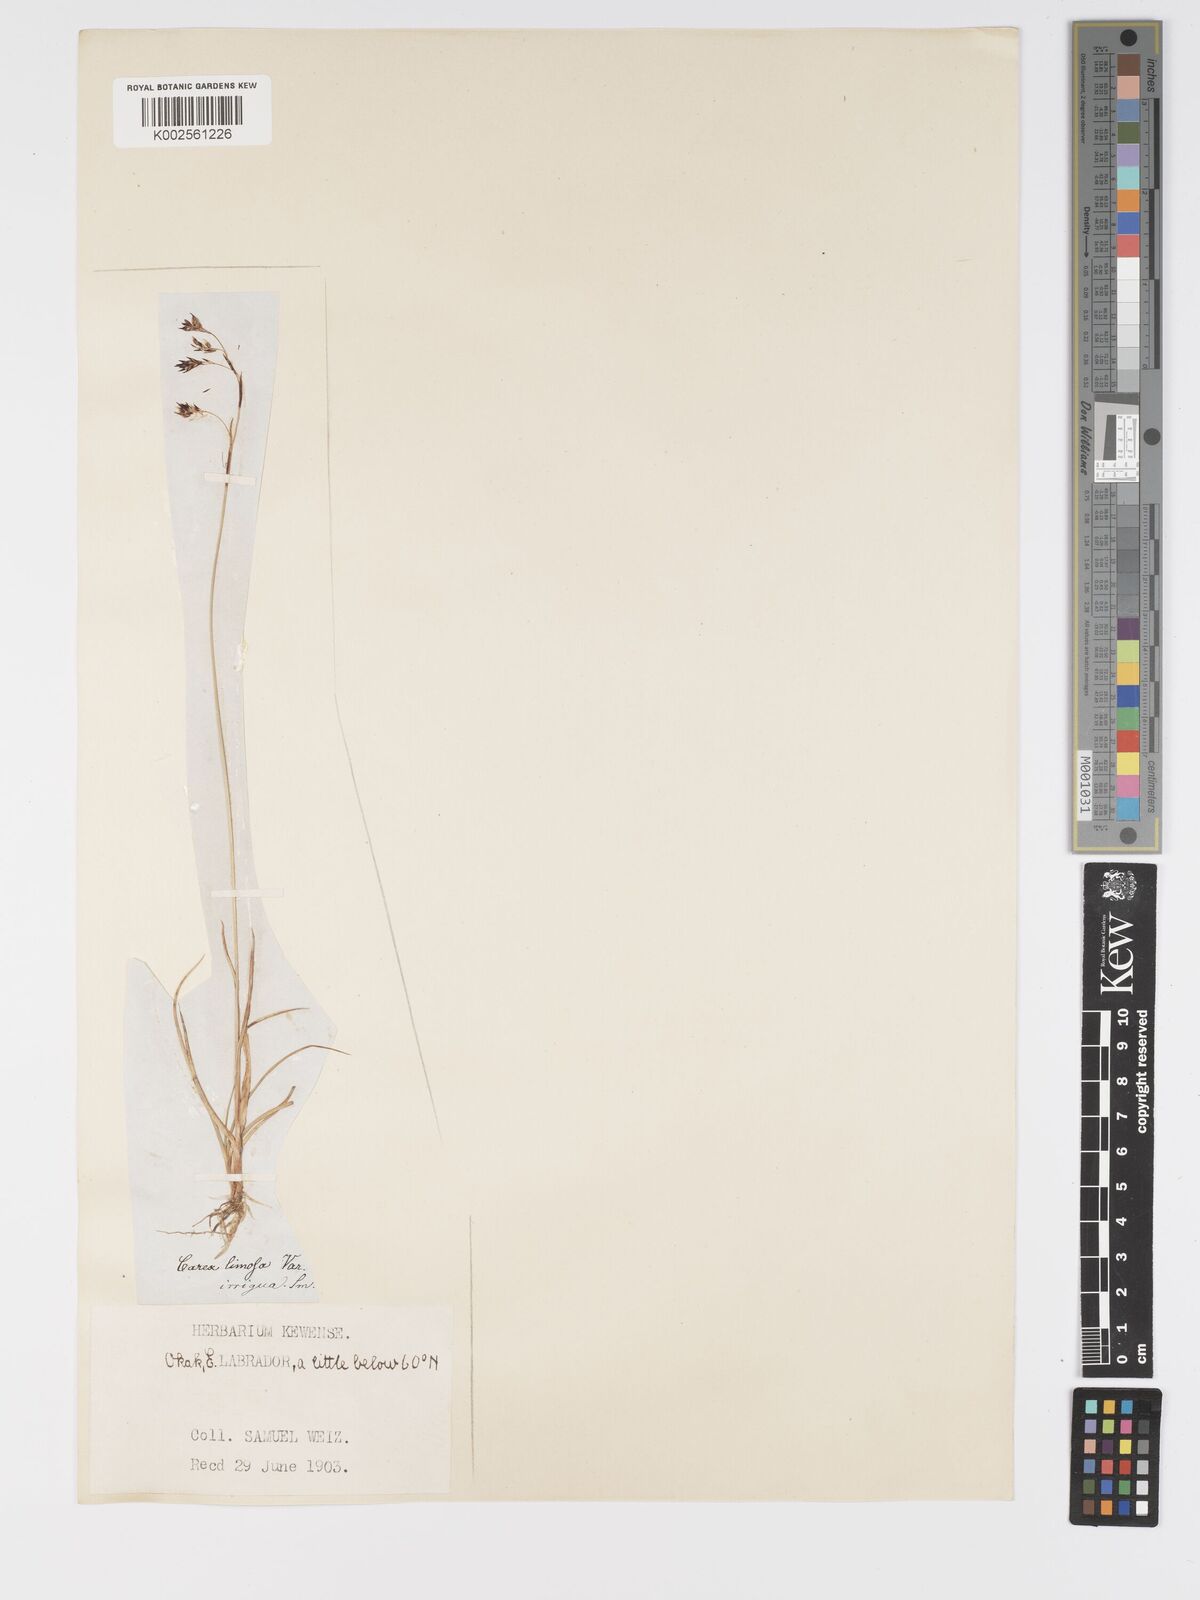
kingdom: Plantae
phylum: Tracheophyta
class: Liliopsida
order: Poales
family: Cyperaceae
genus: Carex
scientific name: Carex limosa
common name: Bog sedge
